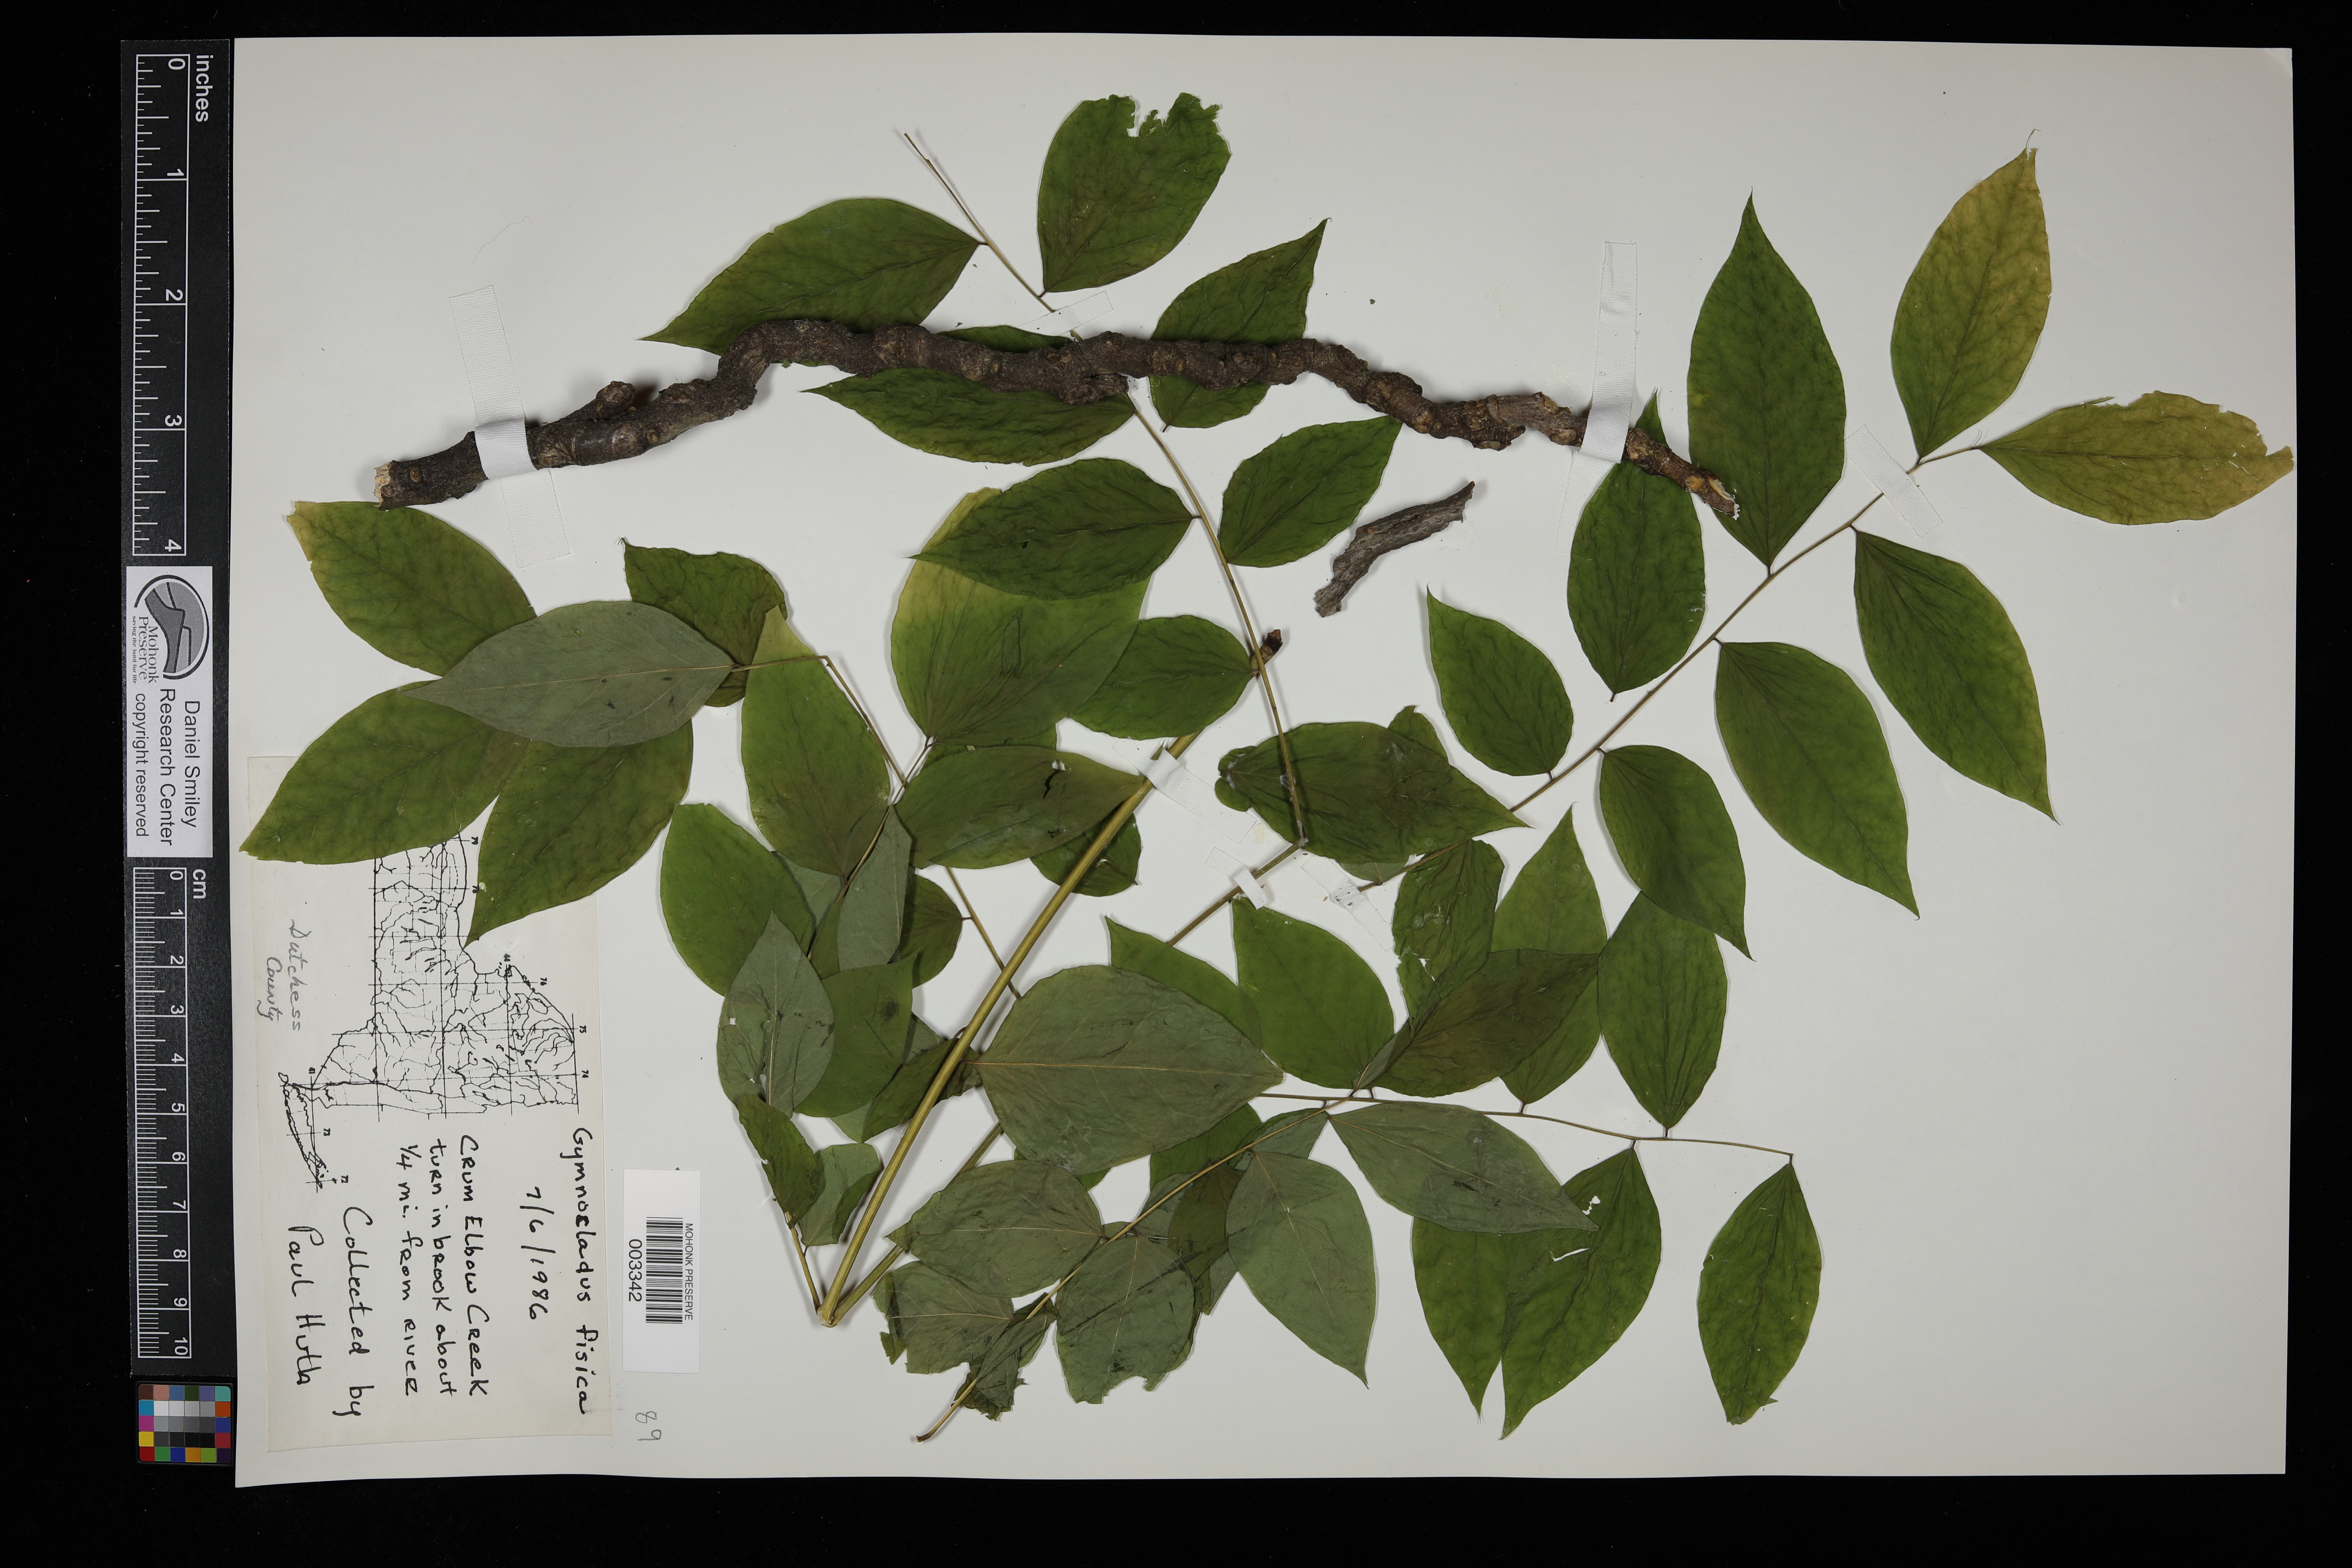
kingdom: Plantae
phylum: Tracheophyta
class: Magnoliopsida
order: Fabales
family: Fabaceae
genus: Gymnocladus
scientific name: Gymnocladus dioicus
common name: Kentucky coffee-tree
